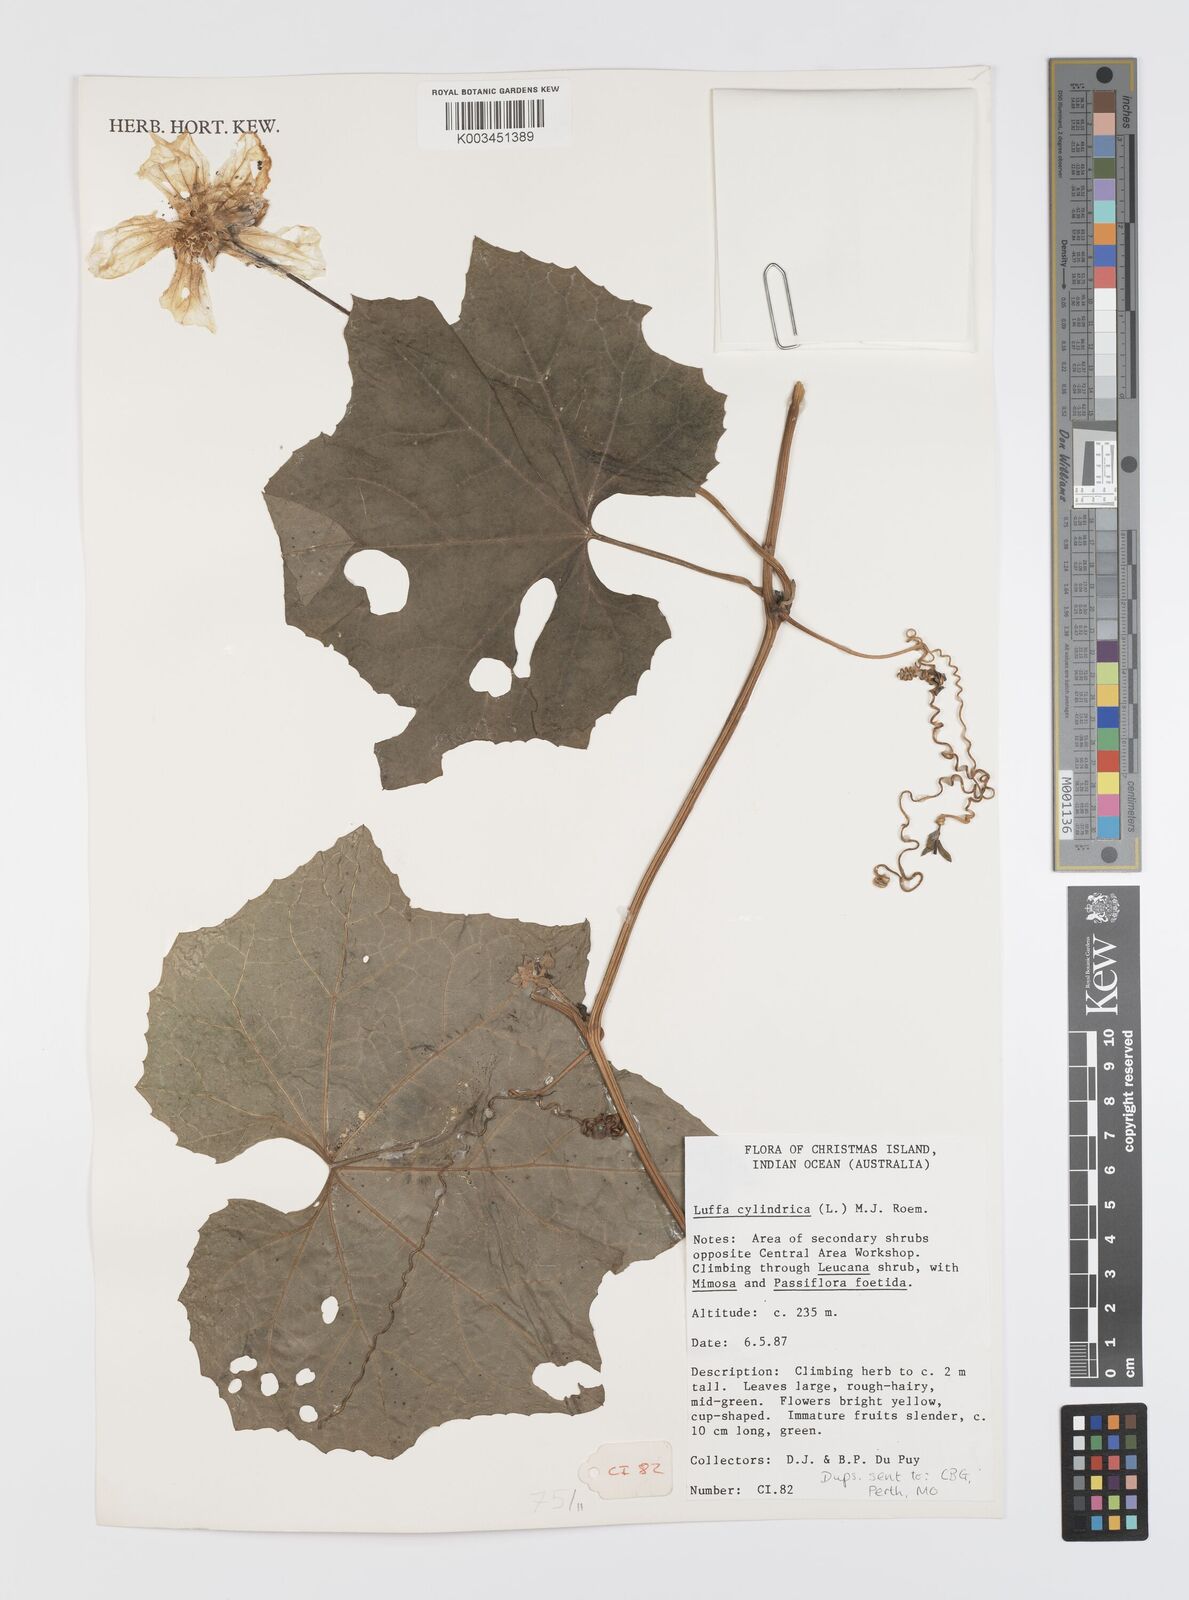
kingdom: Plantae
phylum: Tracheophyta
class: Magnoliopsida
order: Cucurbitales
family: Cucurbitaceae
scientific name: Cucurbitaceae
